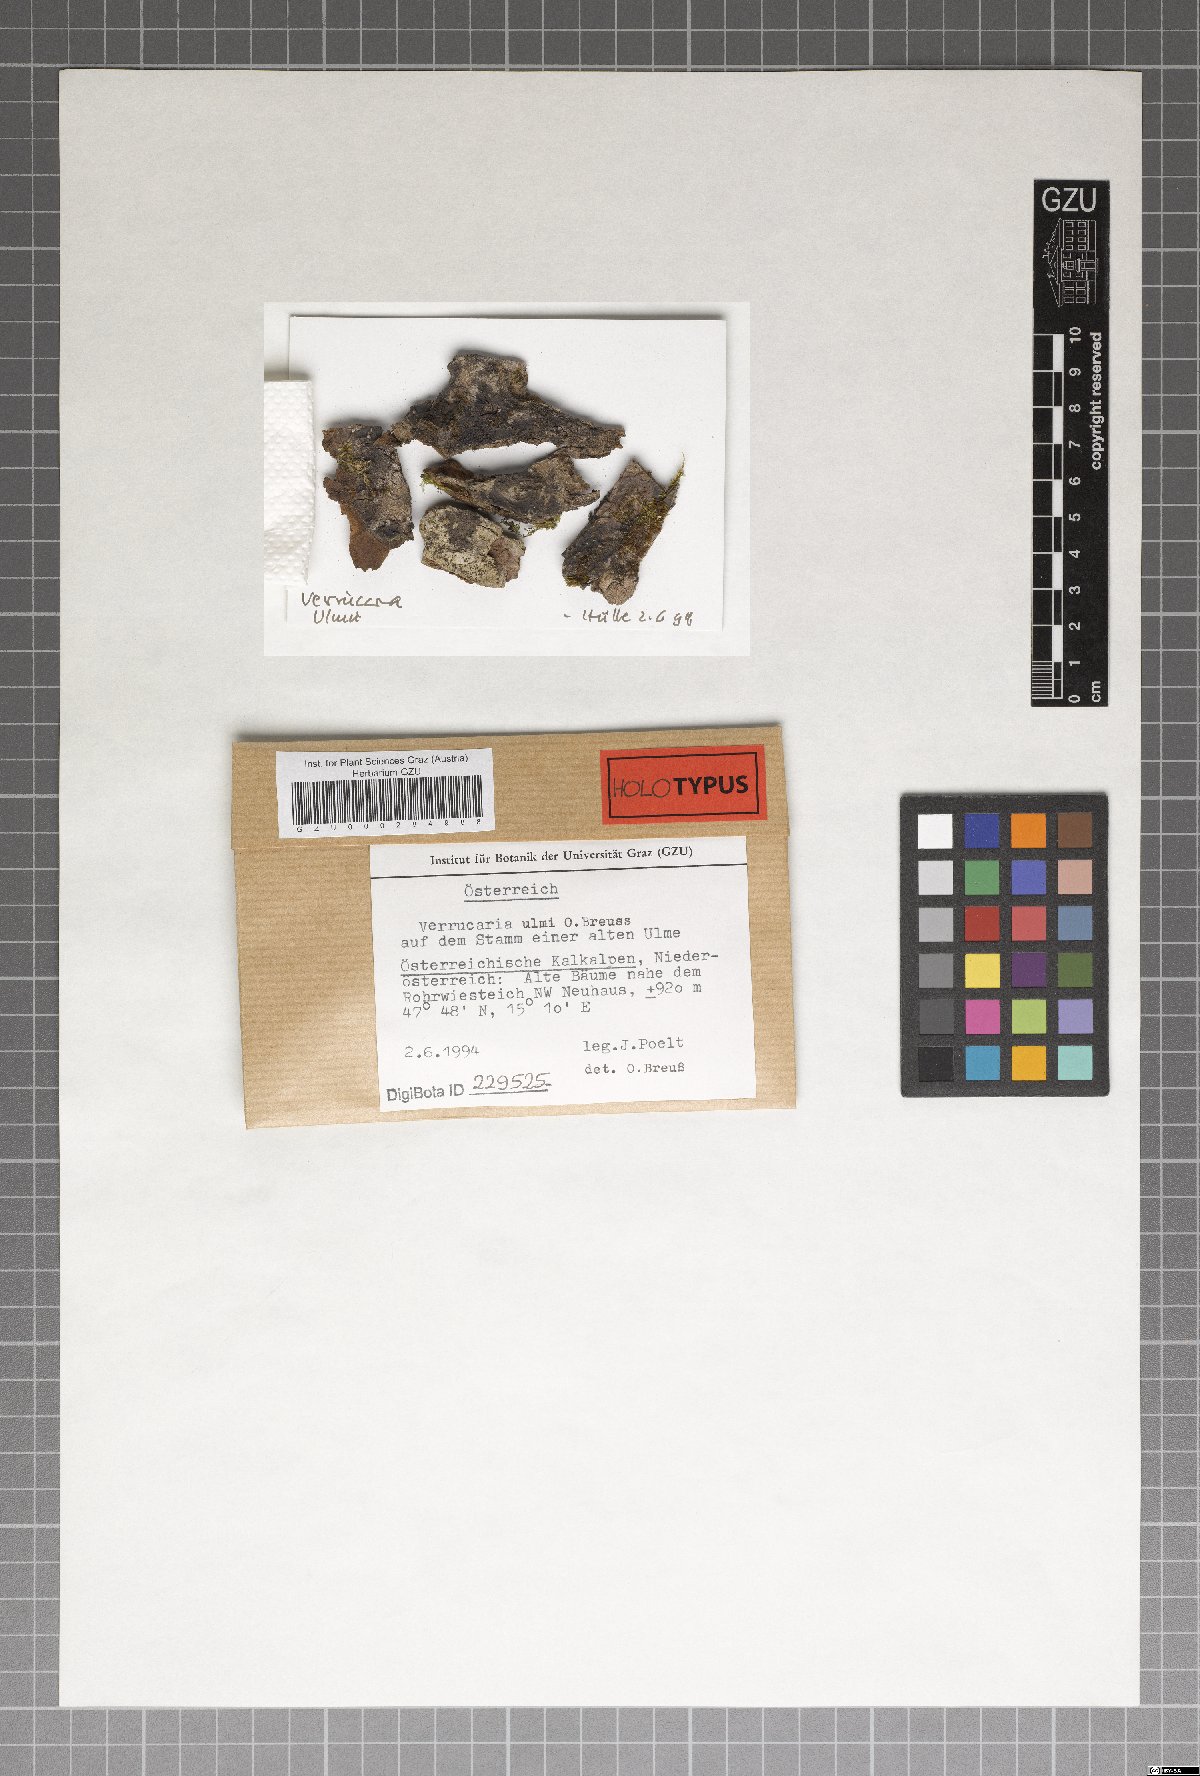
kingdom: Fungi
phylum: Ascomycota
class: Eurotiomycetes
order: Verrucariales
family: Verrucariaceae
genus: Verrucaria
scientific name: Verrucaria
